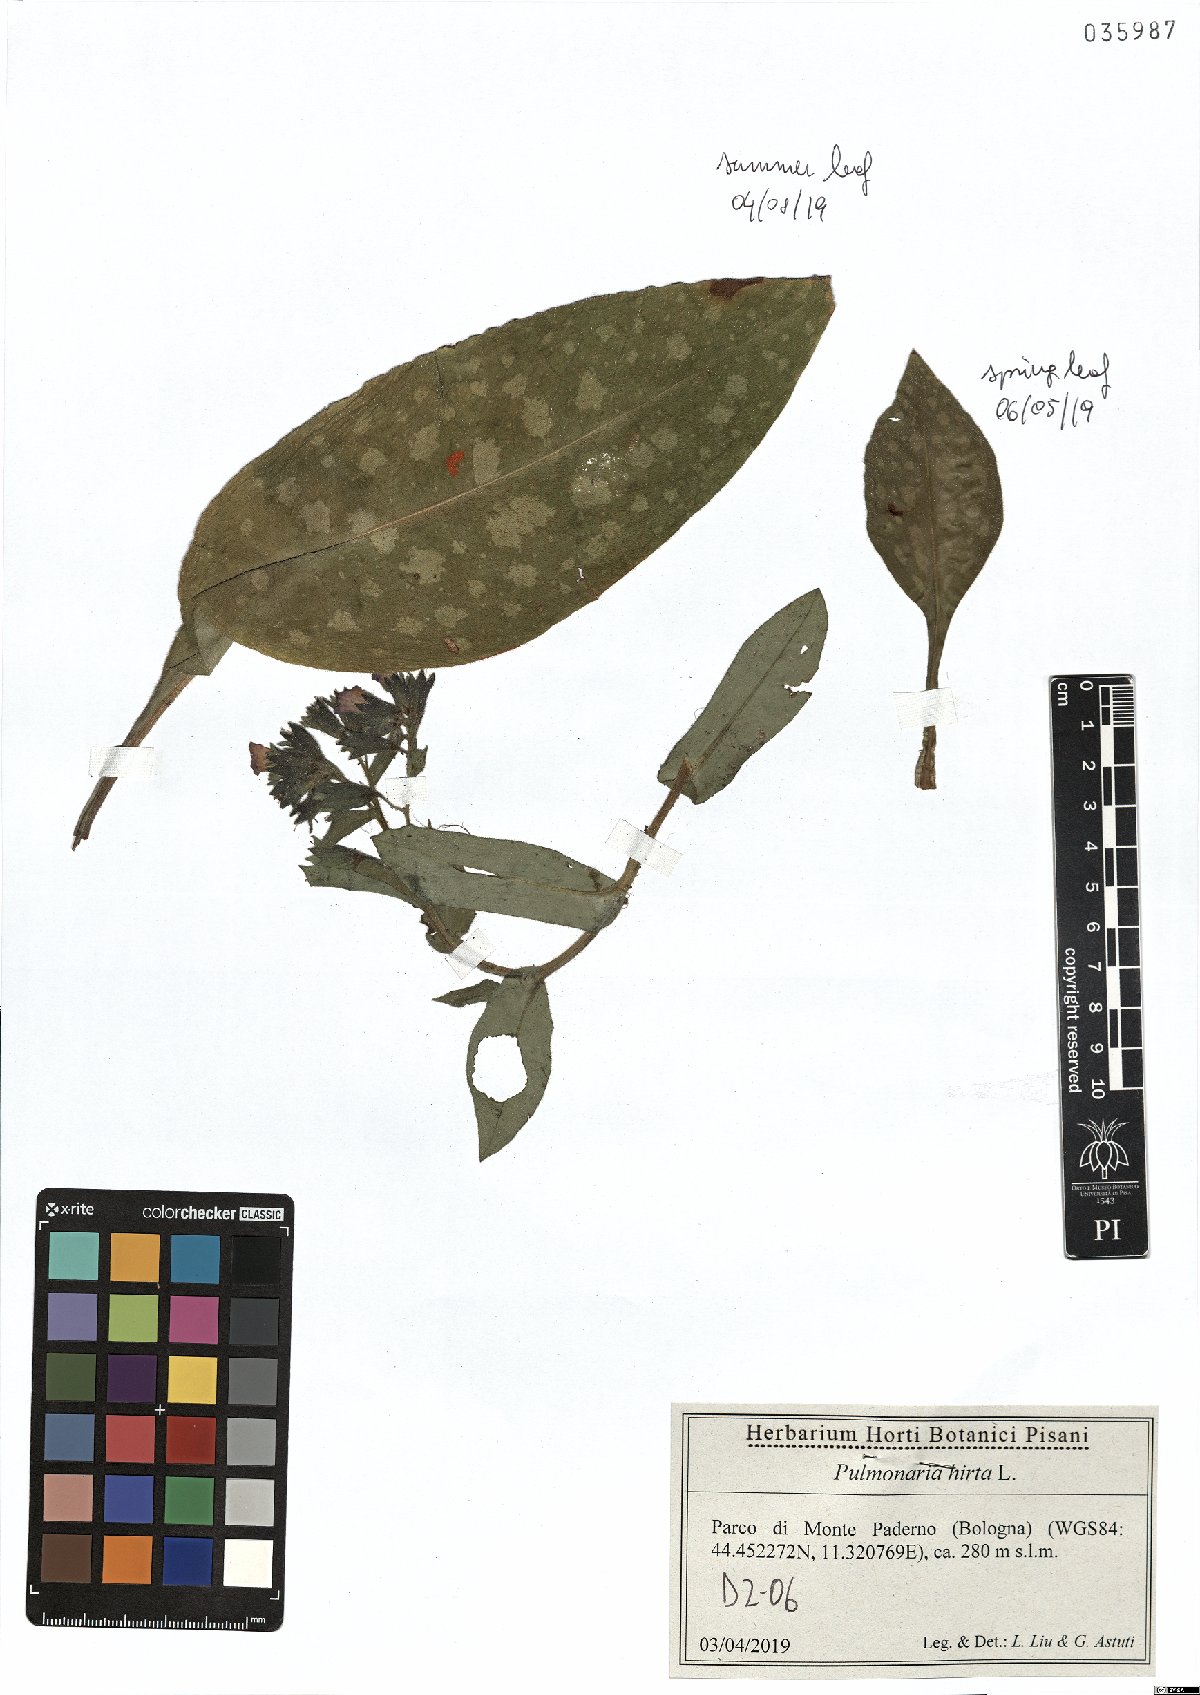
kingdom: Plantae
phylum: Tracheophyta
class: Magnoliopsida
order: Boraginales
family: Boraginaceae
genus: Pulmonaria
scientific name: Pulmonaria hirta
